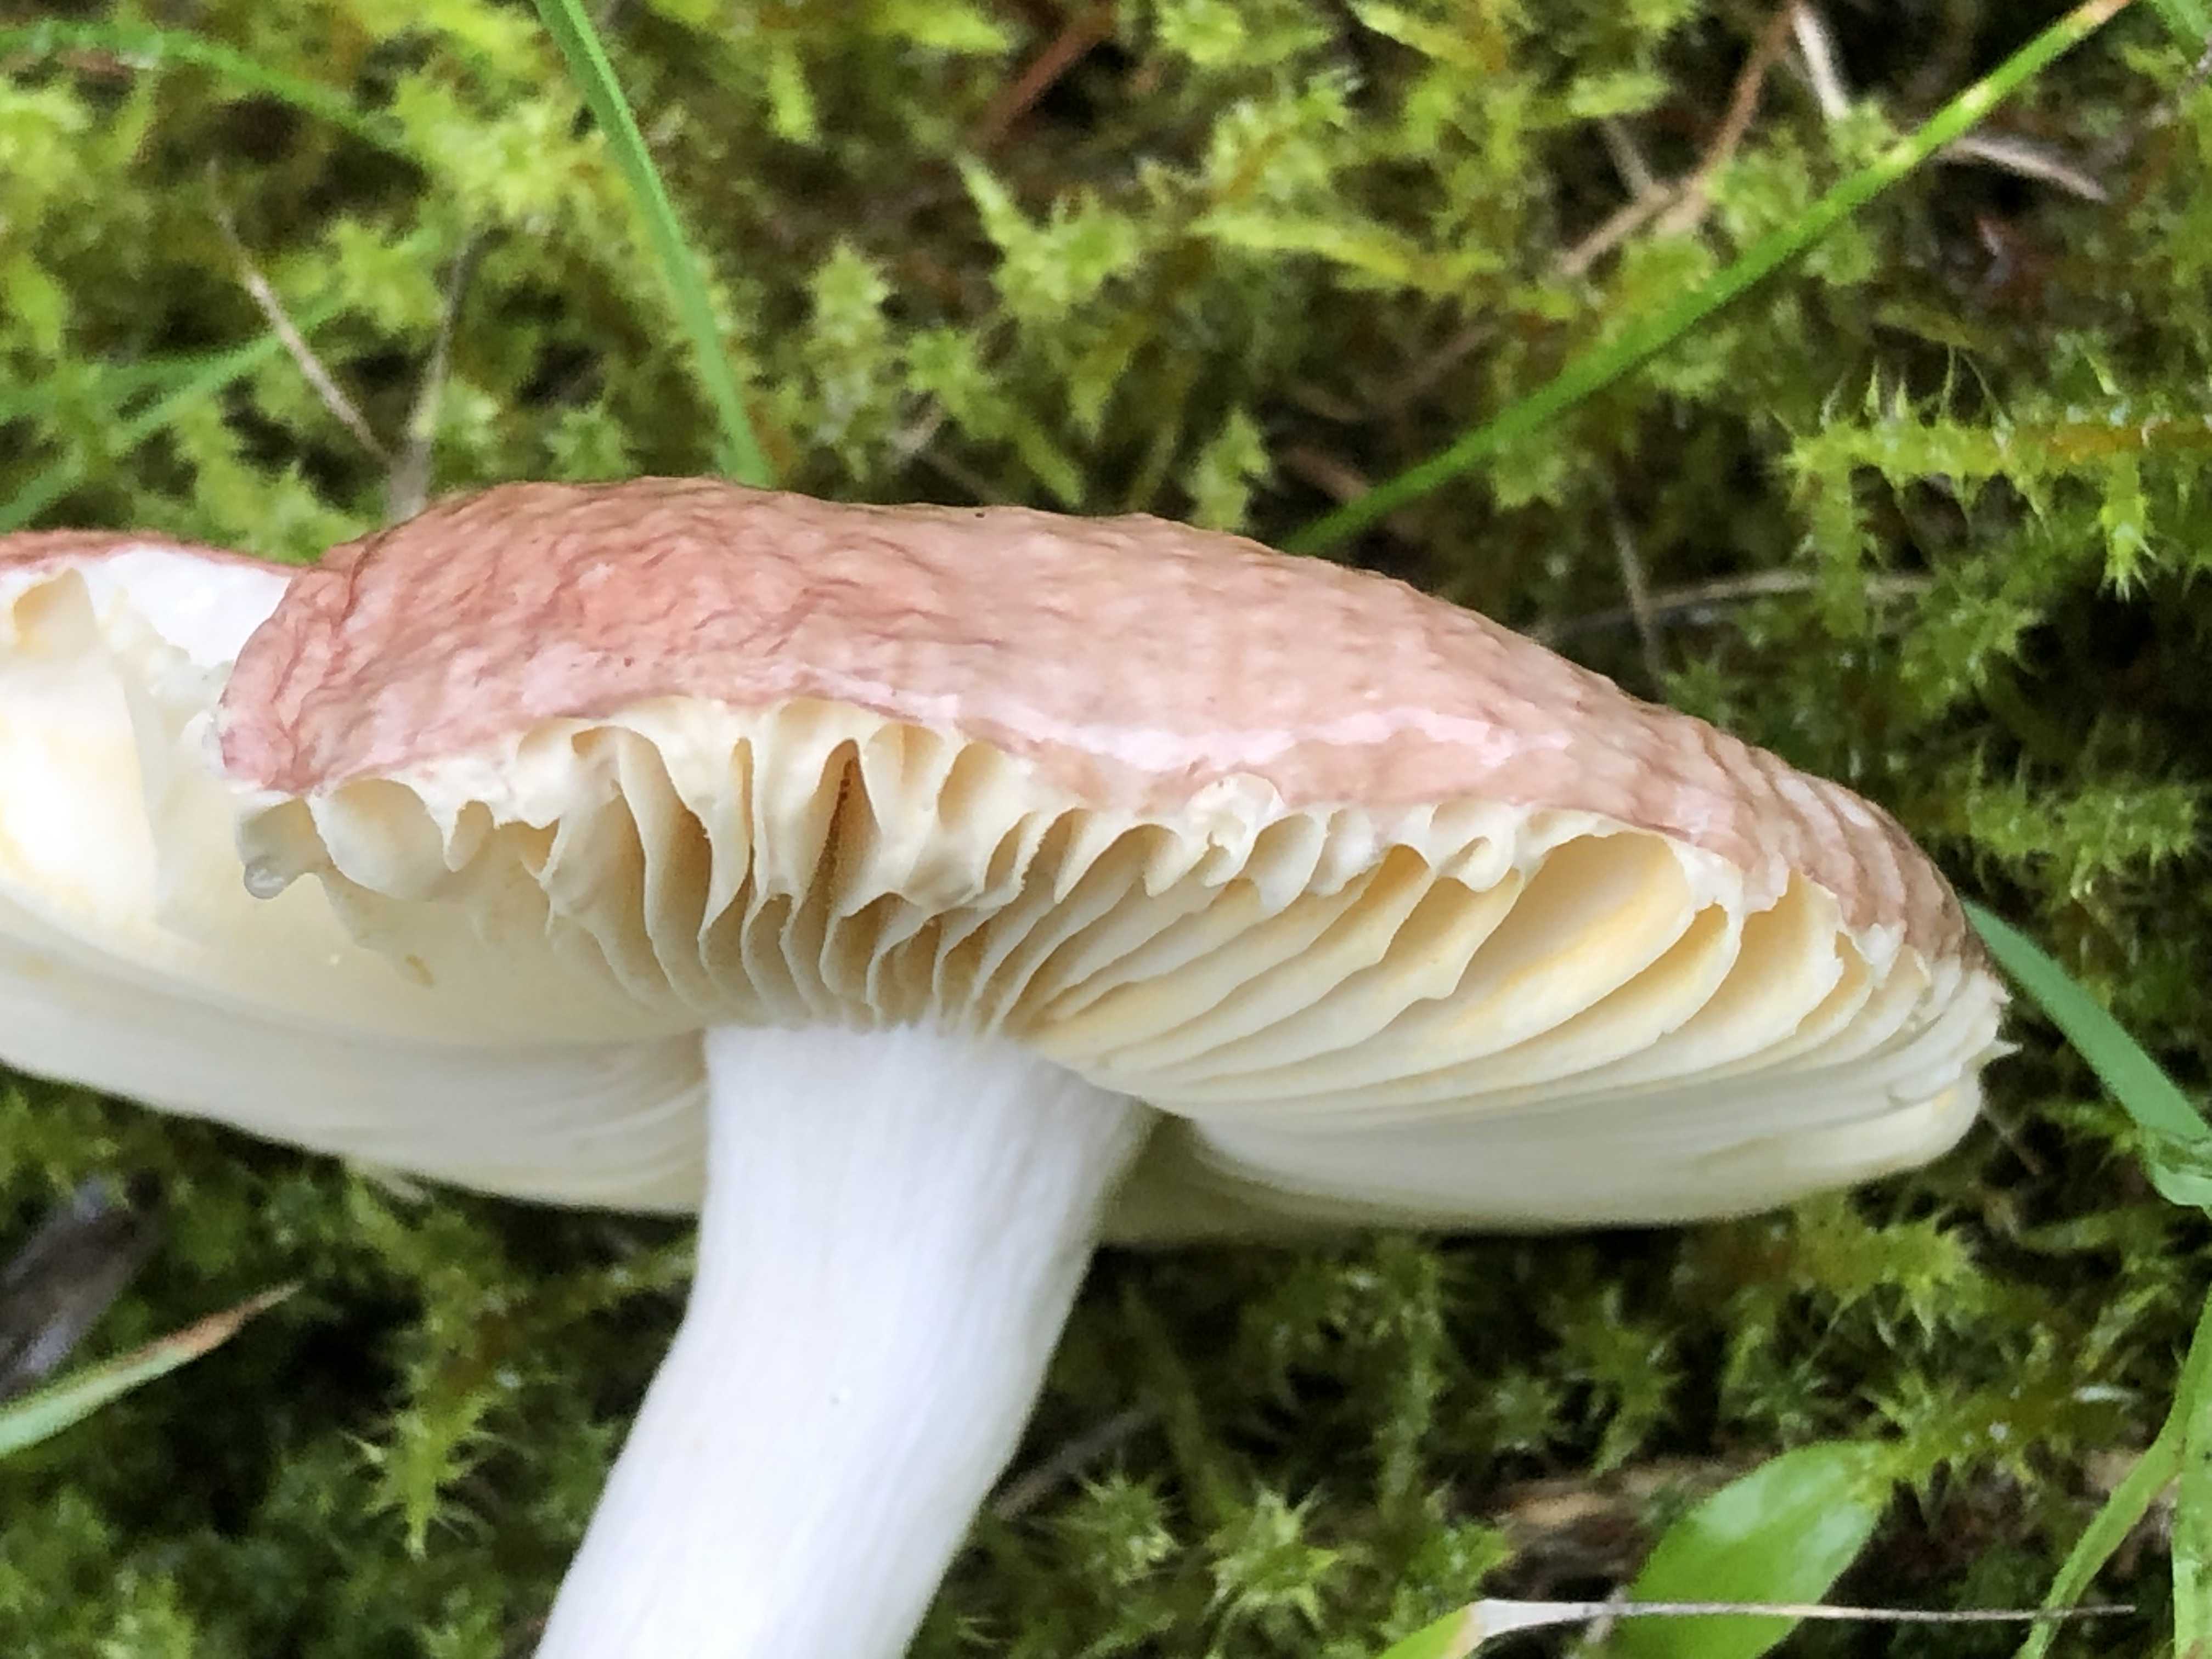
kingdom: Fungi
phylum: Basidiomycota
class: Agaricomycetes
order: Russulales
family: Russulaceae
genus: Russula
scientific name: Russula nauseosa
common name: spinkel skørhat
